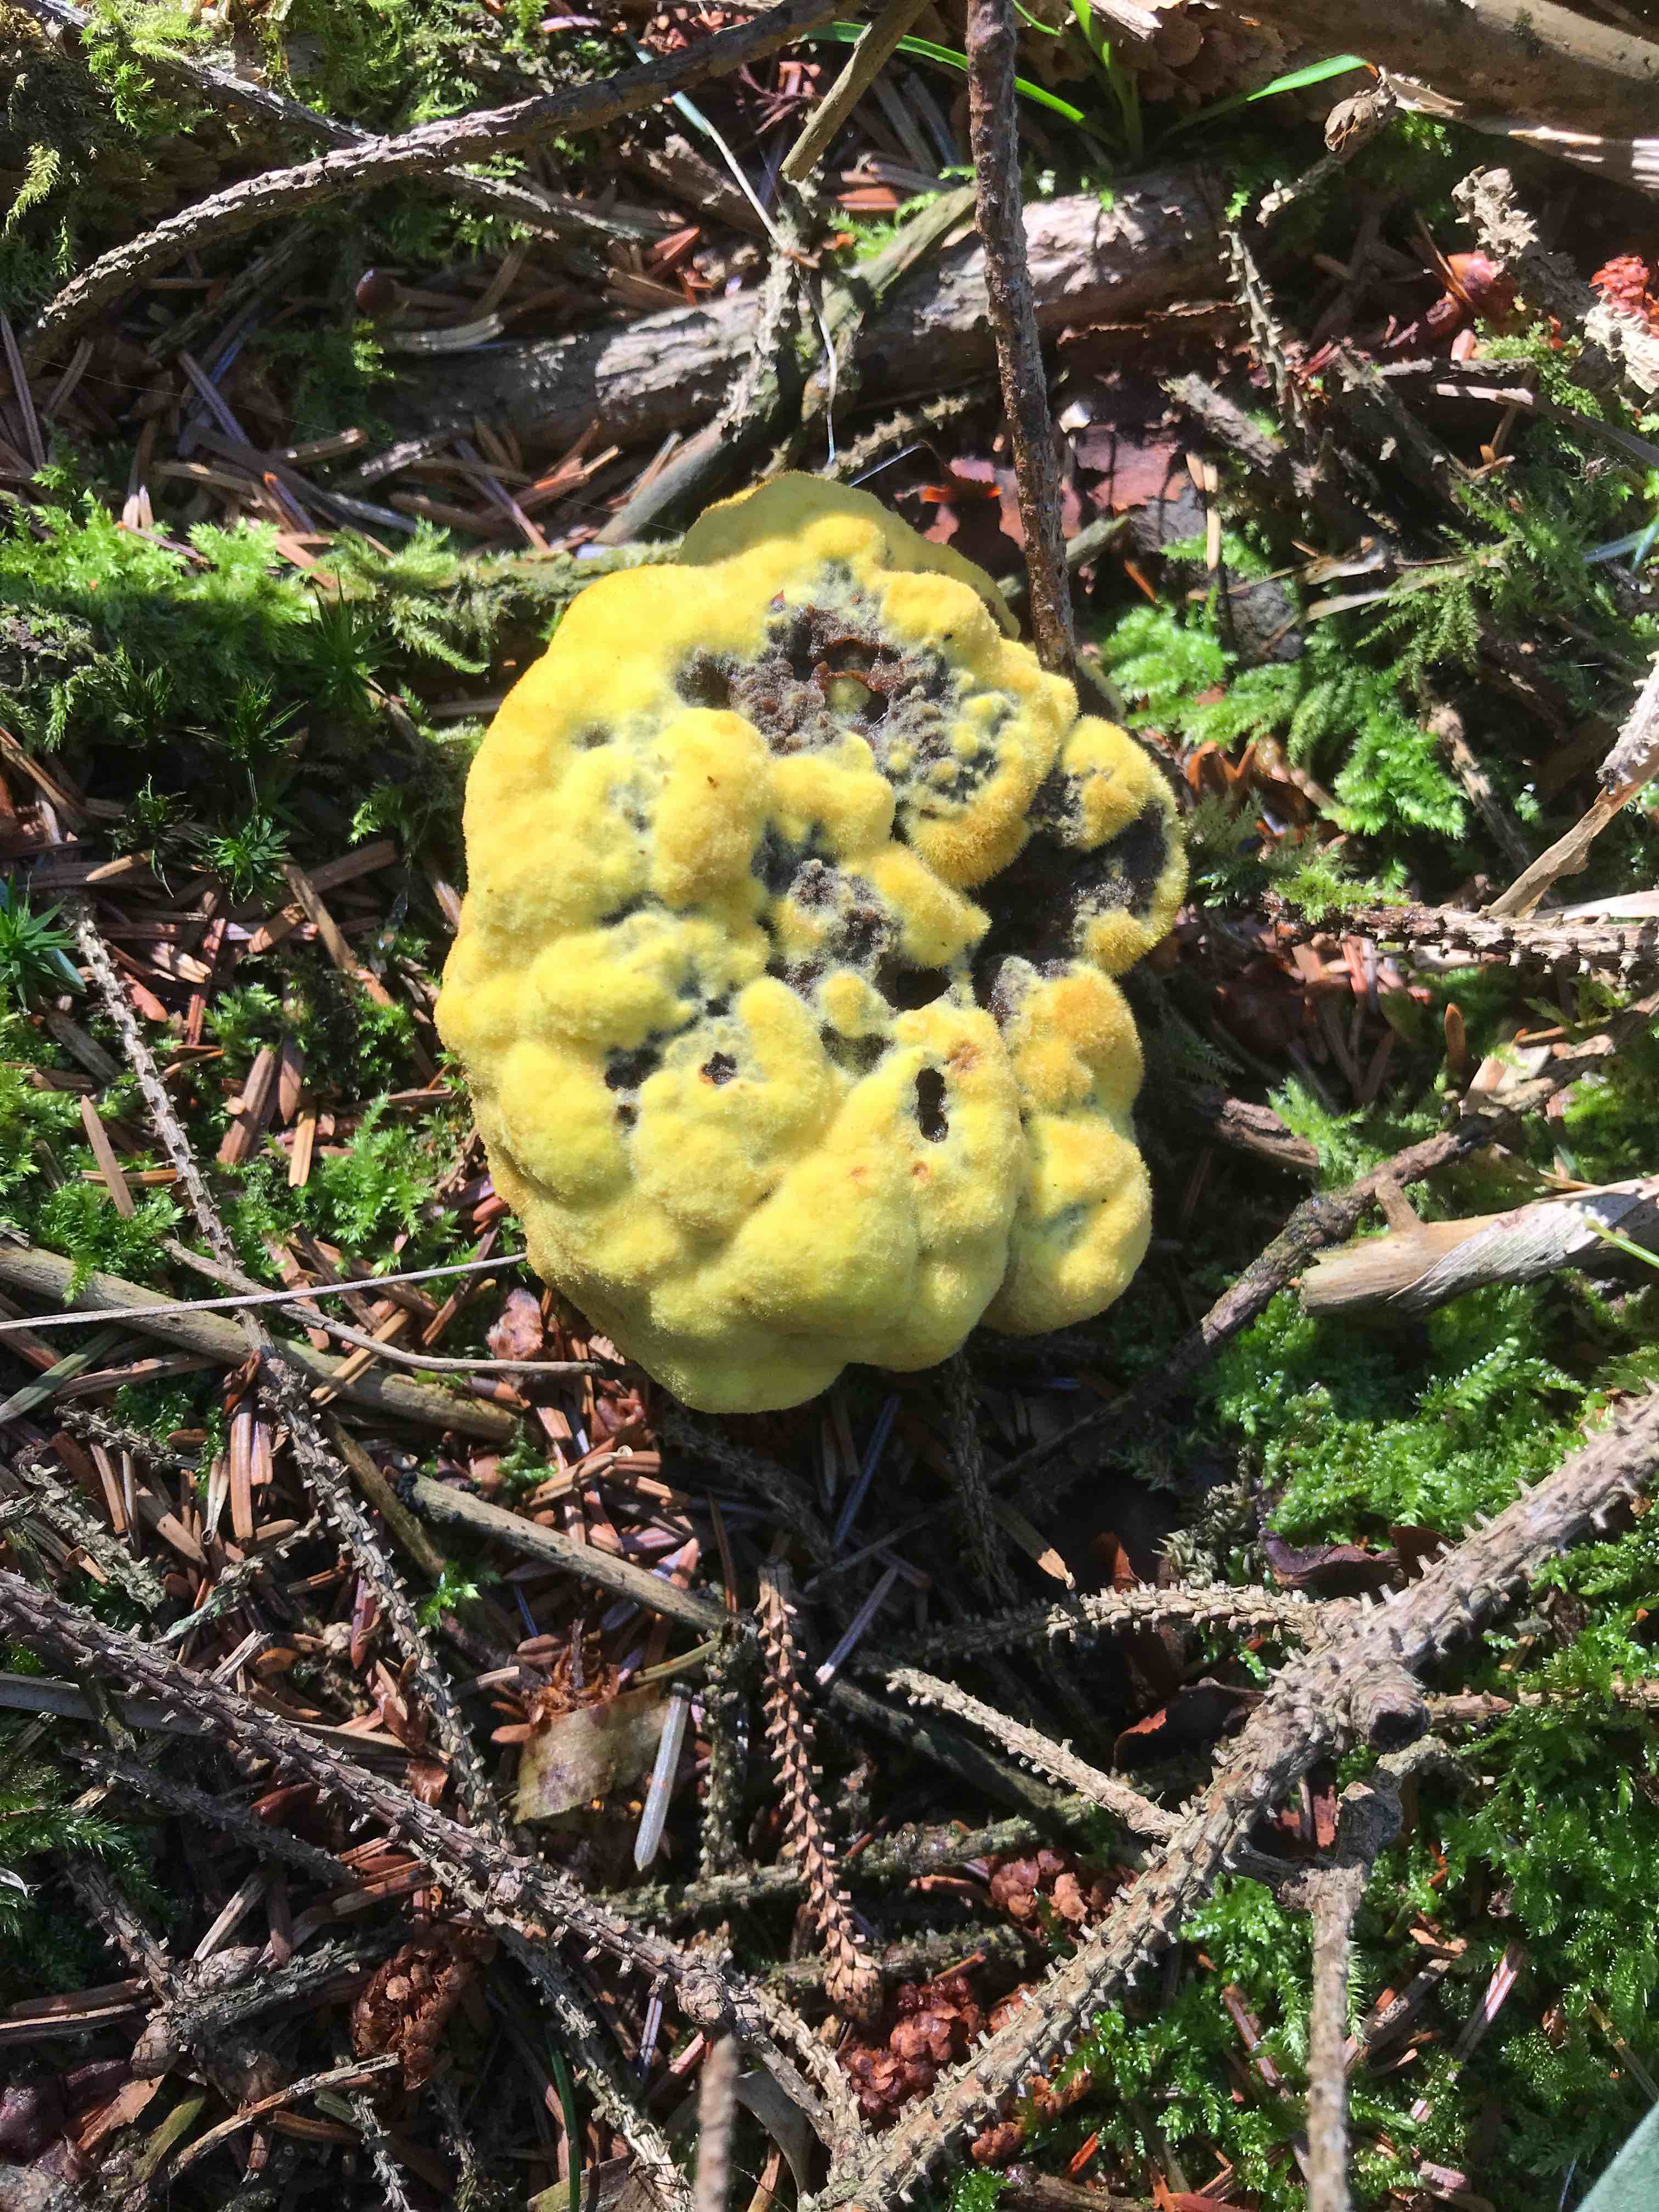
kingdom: Fungi
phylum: Basidiomycota
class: Agaricomycetes
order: Polyporales
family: Laetiporaceae
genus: Phaeolus
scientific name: Phaeolus schweinitzii
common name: brunporesvamp
